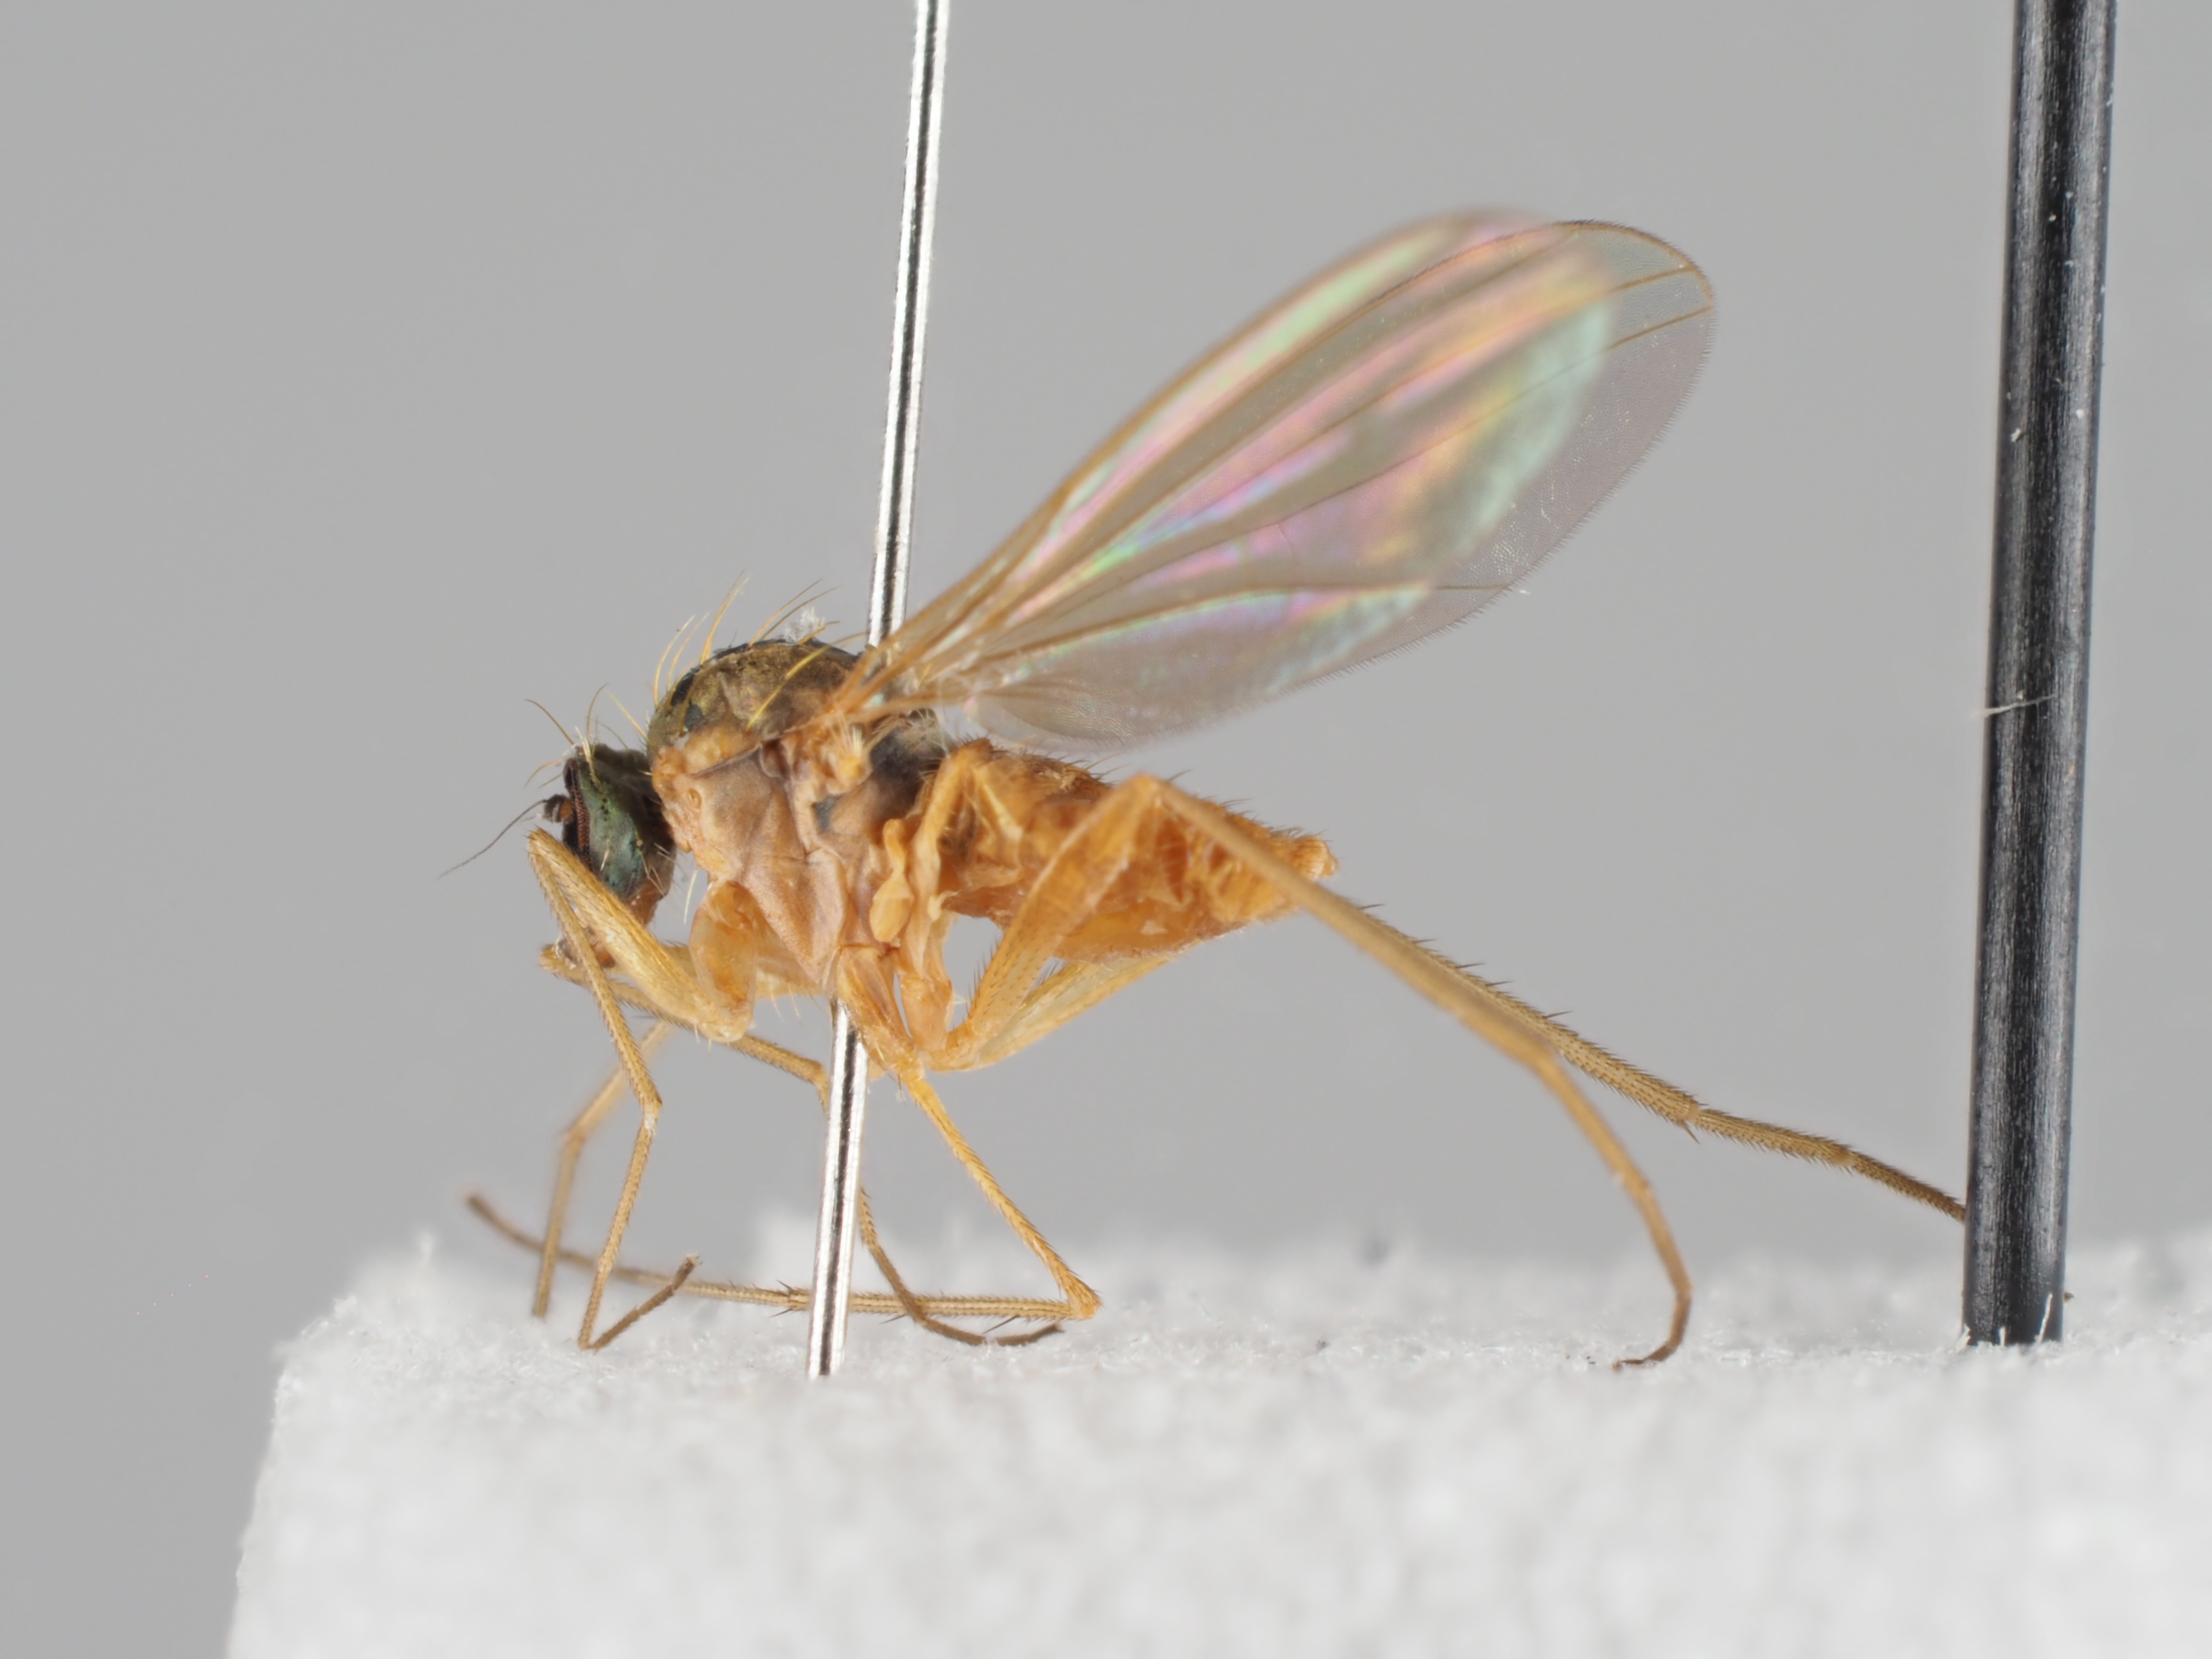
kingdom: Animalia
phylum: Arthropoda
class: Insecta
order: Diptera
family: Dolichopodidae
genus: Xanthochlorus
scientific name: Xanthochlorus ornatus
